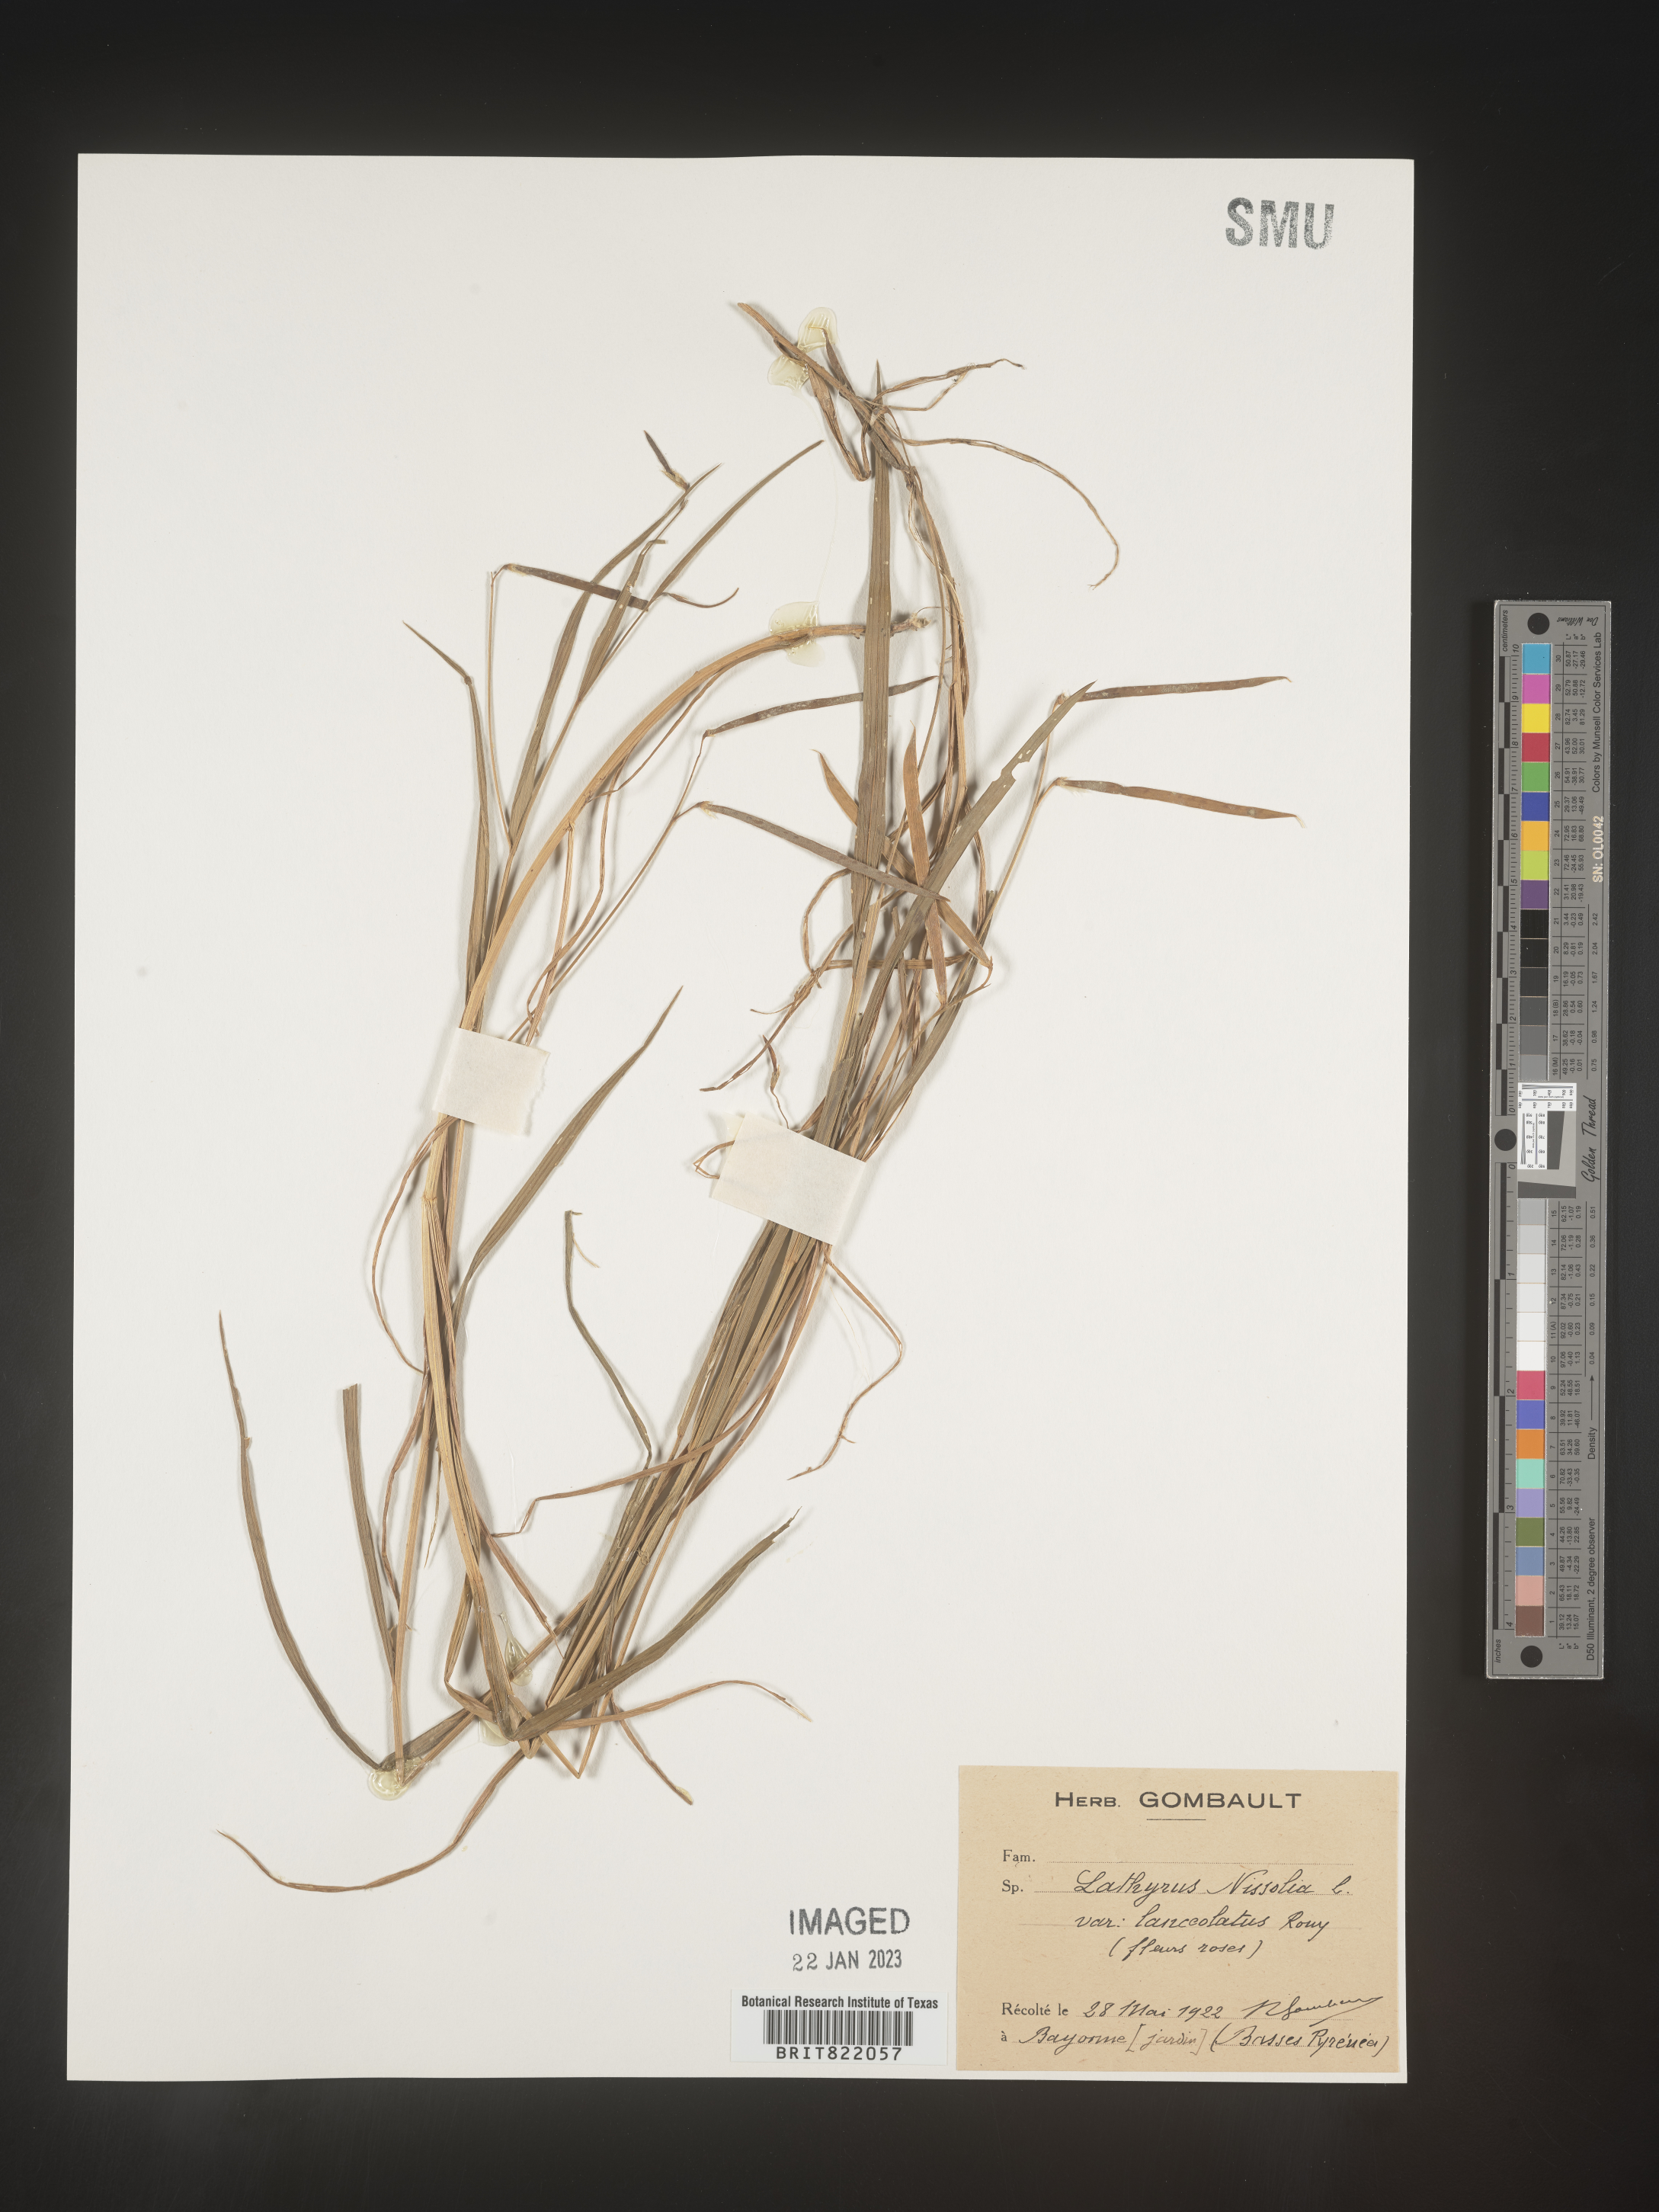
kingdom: Plantae
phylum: Tracheophyta
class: Magnoliopsida
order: Fabales
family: Fabaceae
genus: Lathyrus
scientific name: Lathyrus
